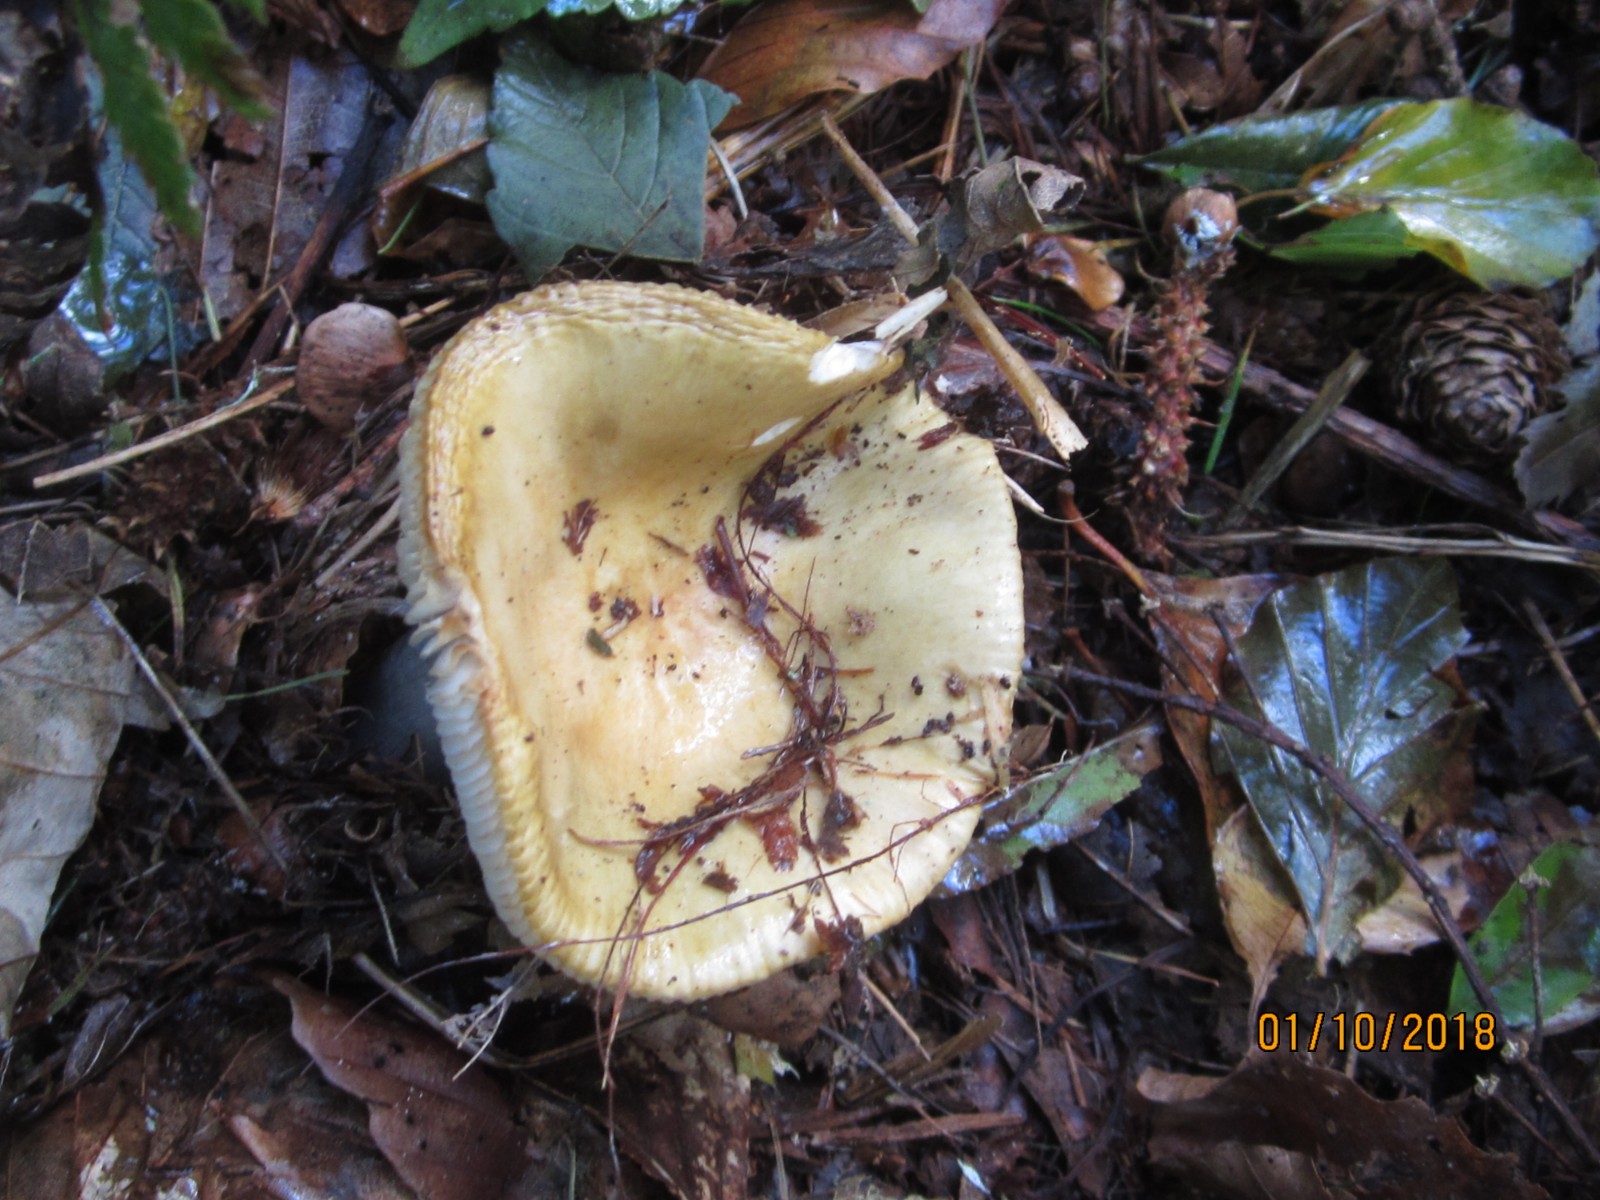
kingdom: Fungi
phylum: Basidiomycota
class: Agaricomycetes
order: Russulales
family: Russulaceae
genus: Russula
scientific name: Russula ochroleuca
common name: okkergul skørhat
